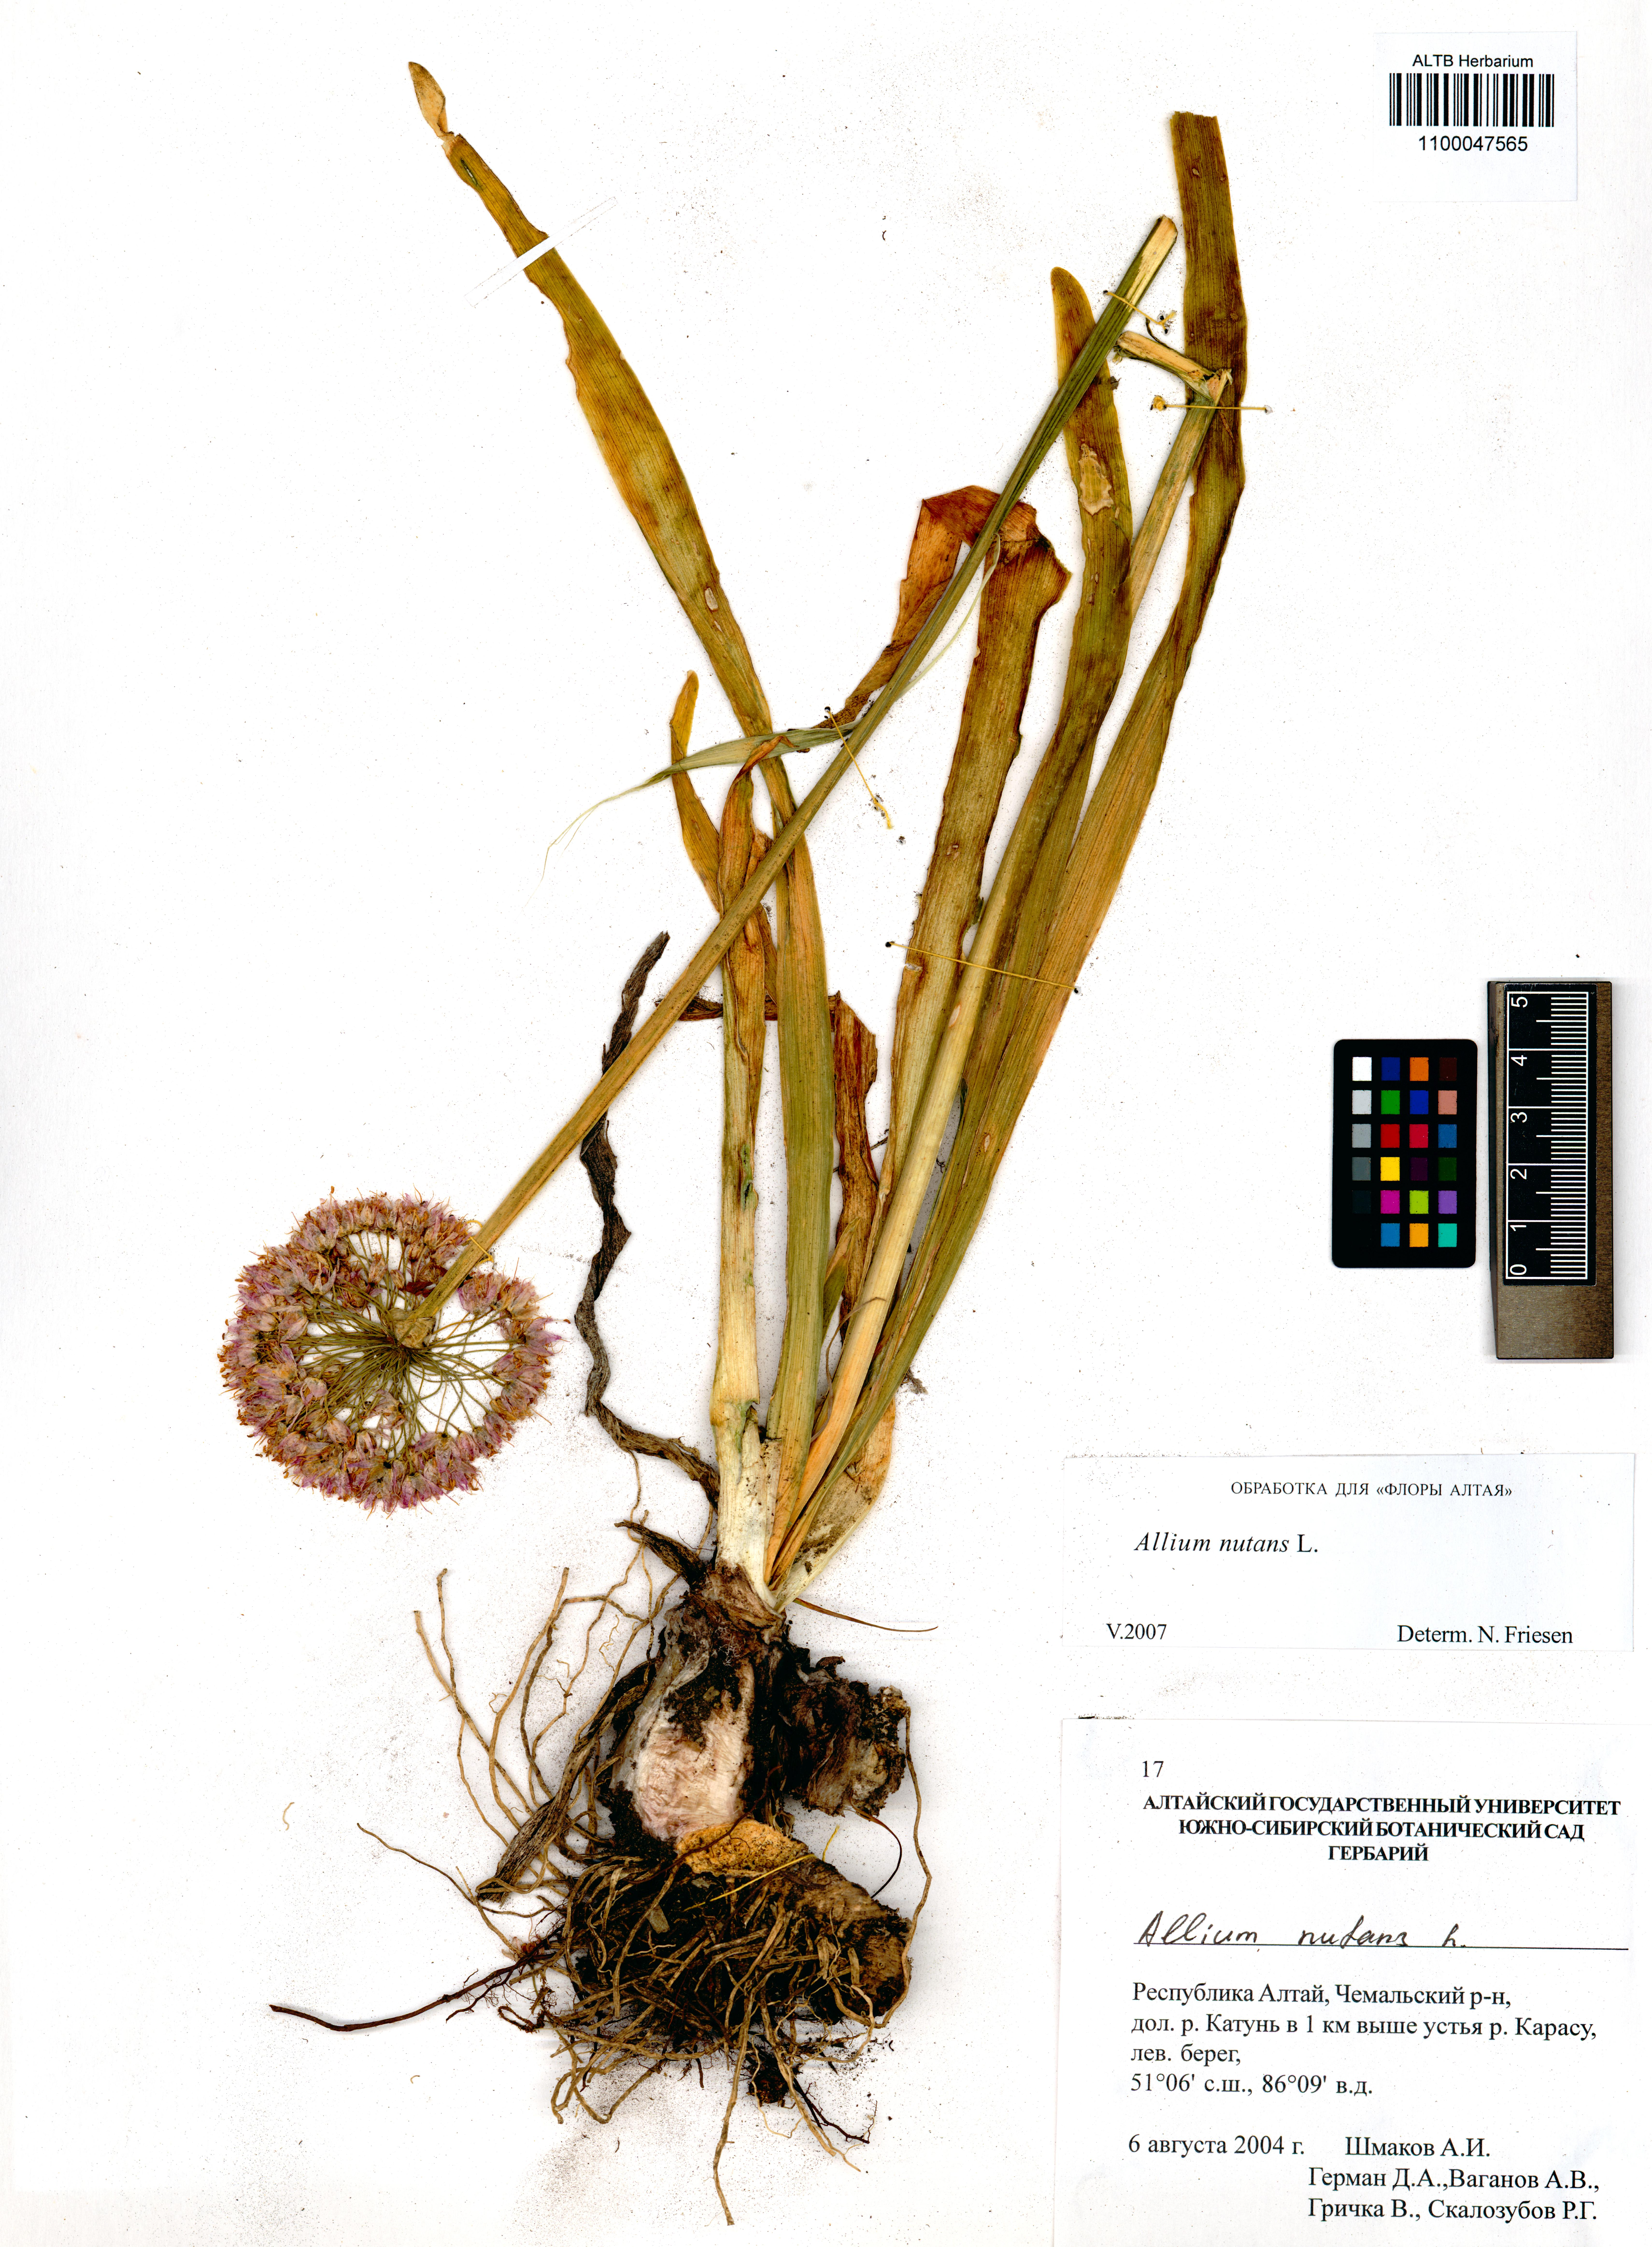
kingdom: Plantae
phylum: Tracheophyta
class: Liliopsida
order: Asparagales
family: Amaryllidaceae
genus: Allium
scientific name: Allium nutans
